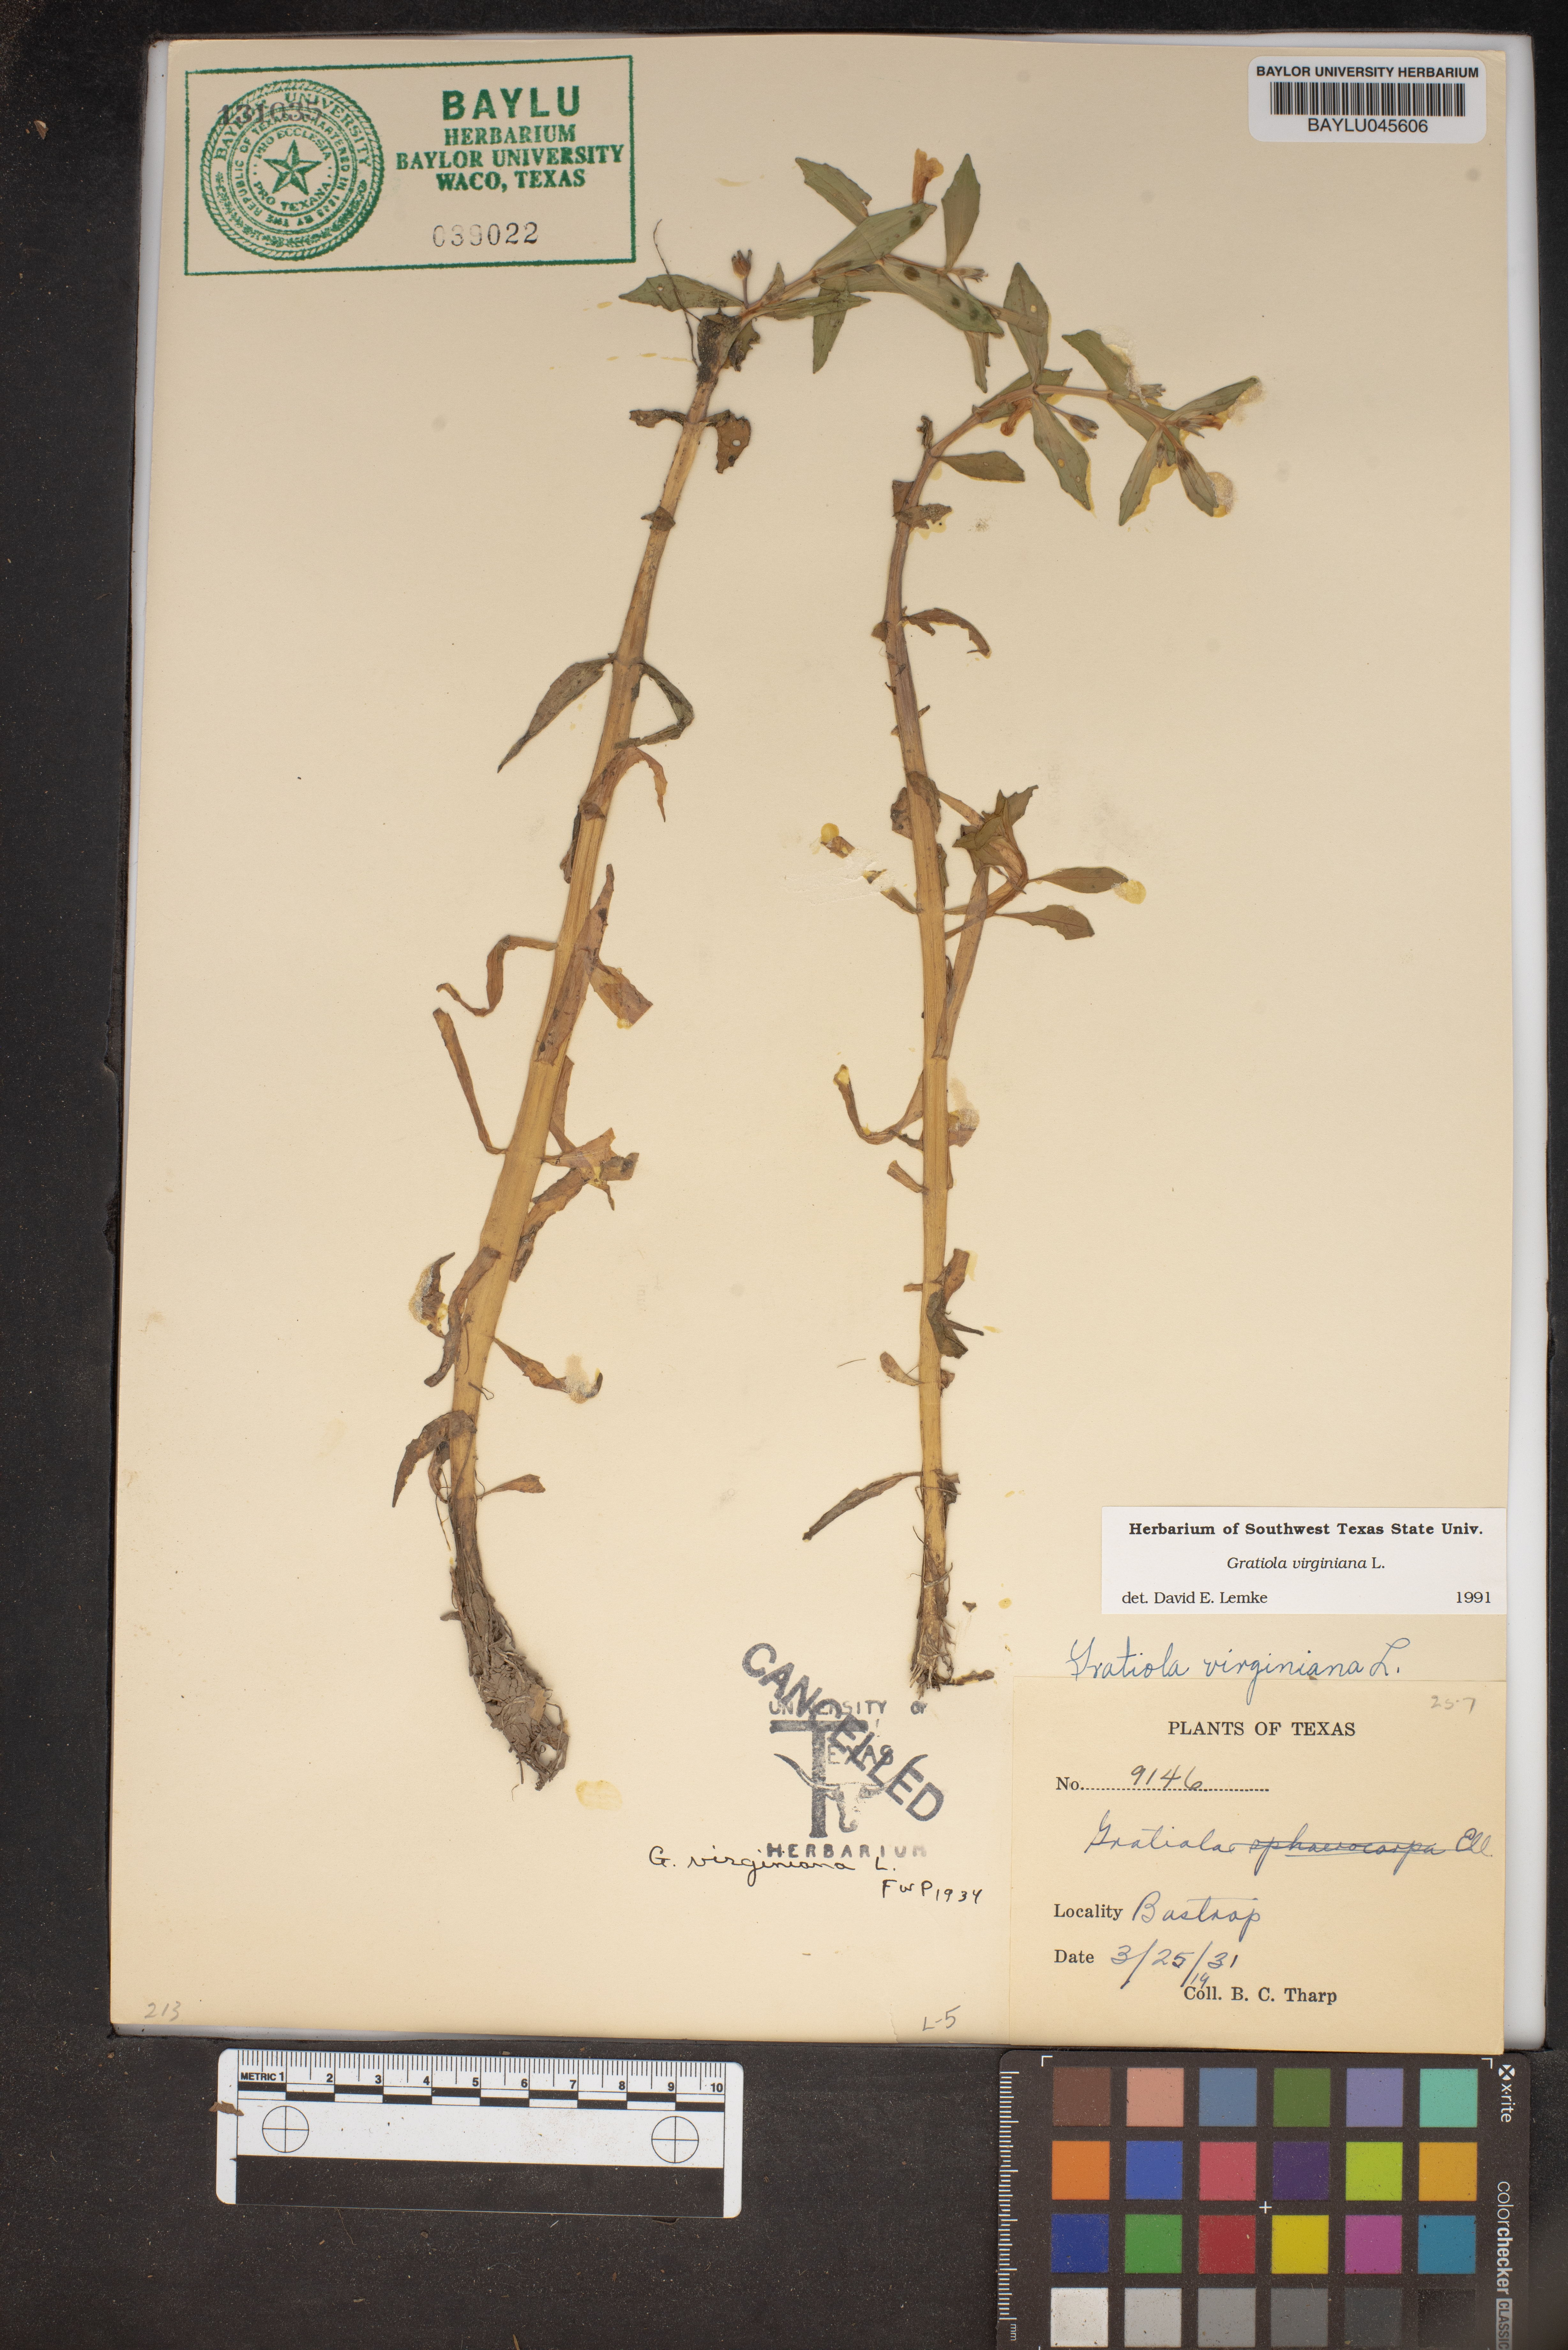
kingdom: Plantae
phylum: Tracheophyta
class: Magnoliopsida
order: Lamiales
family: Plantaginaceae
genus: Gratiola
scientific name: Gratiola virginiana
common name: Roundfruit hedgehyssop
